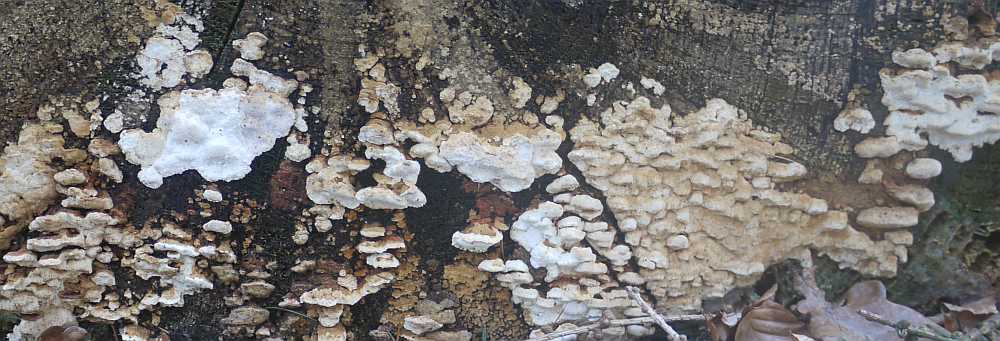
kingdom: Fungi
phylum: Basidiomycota
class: Agaricomycetes
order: Polyporales
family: Fomitopsidaceae
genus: Neoantrodia
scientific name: Neoantrodia serialis
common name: række-sejporesvamp
